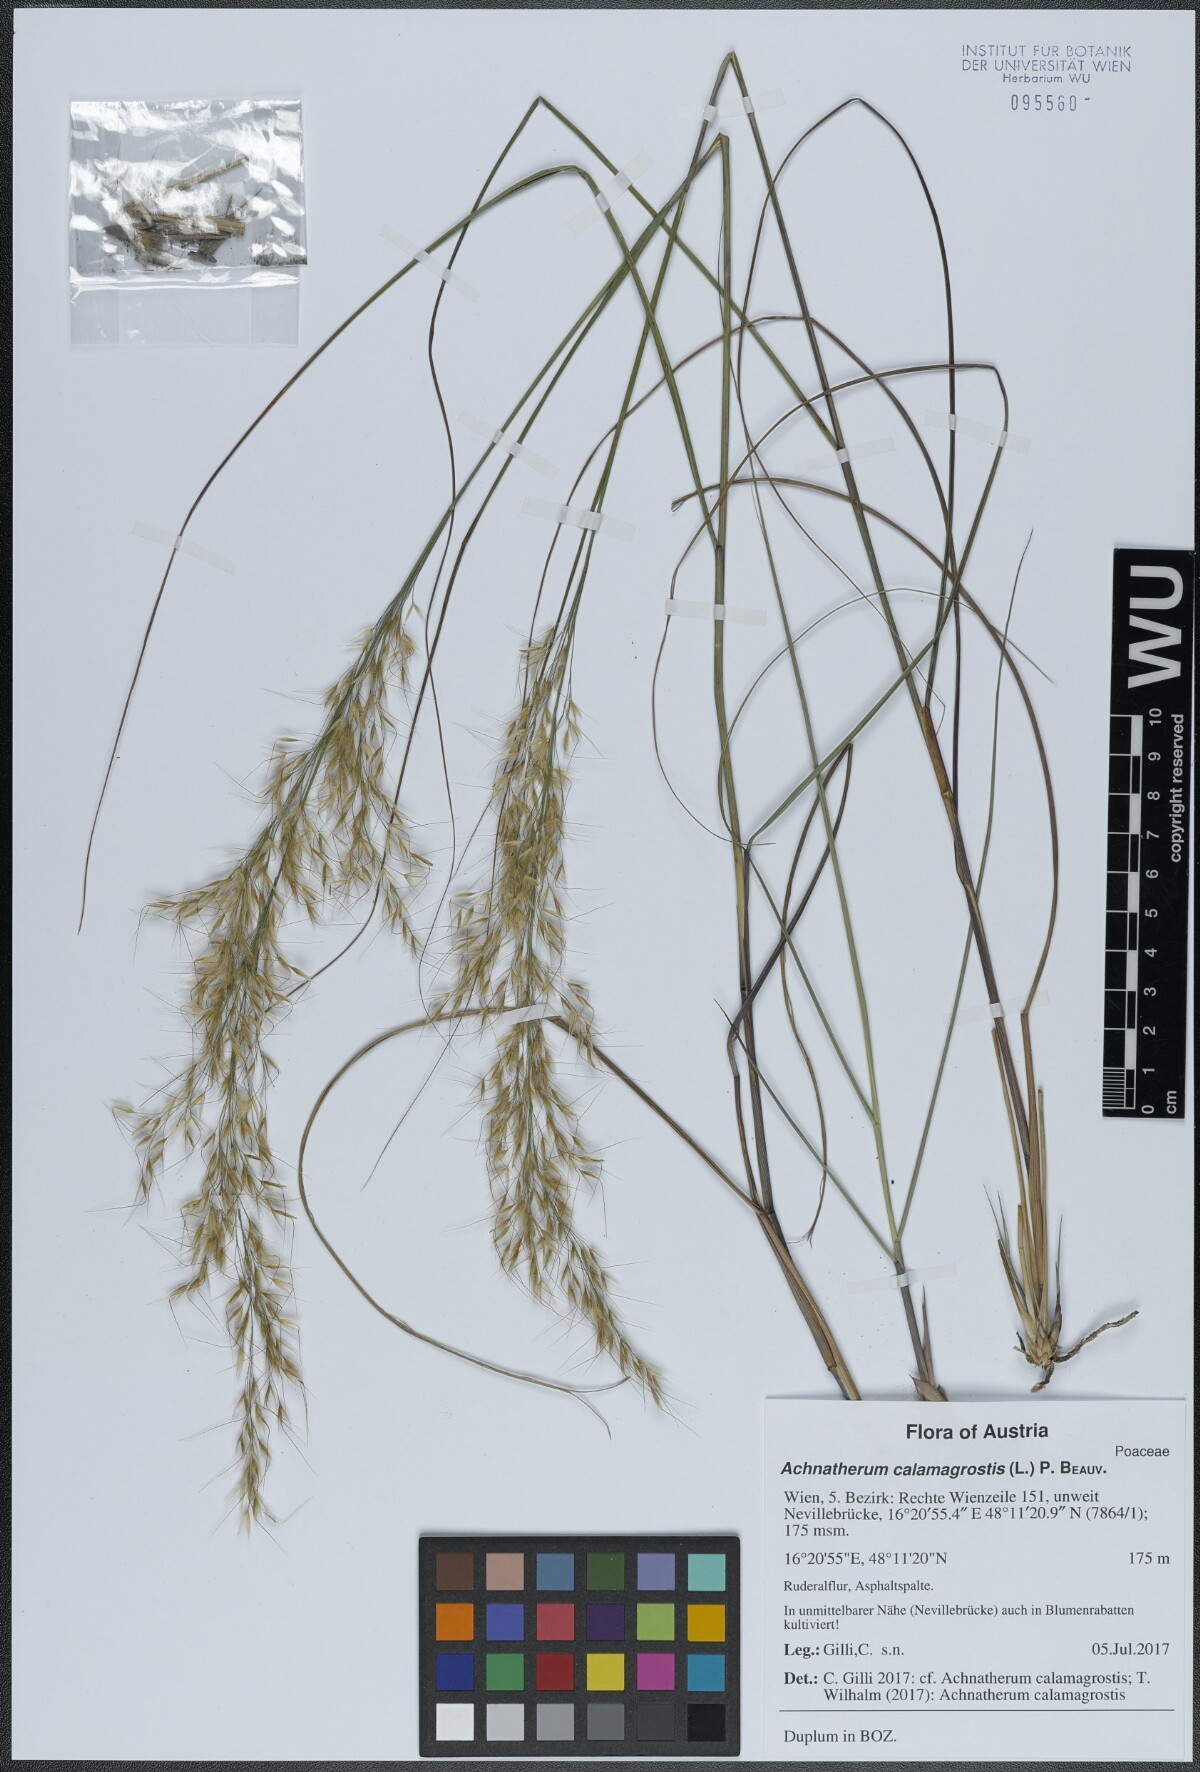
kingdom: Plantae
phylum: Tracheophyta
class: Liliopsida
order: Poales
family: Poaceae
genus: Achnatherum
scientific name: Achnatherum calamagrostis
